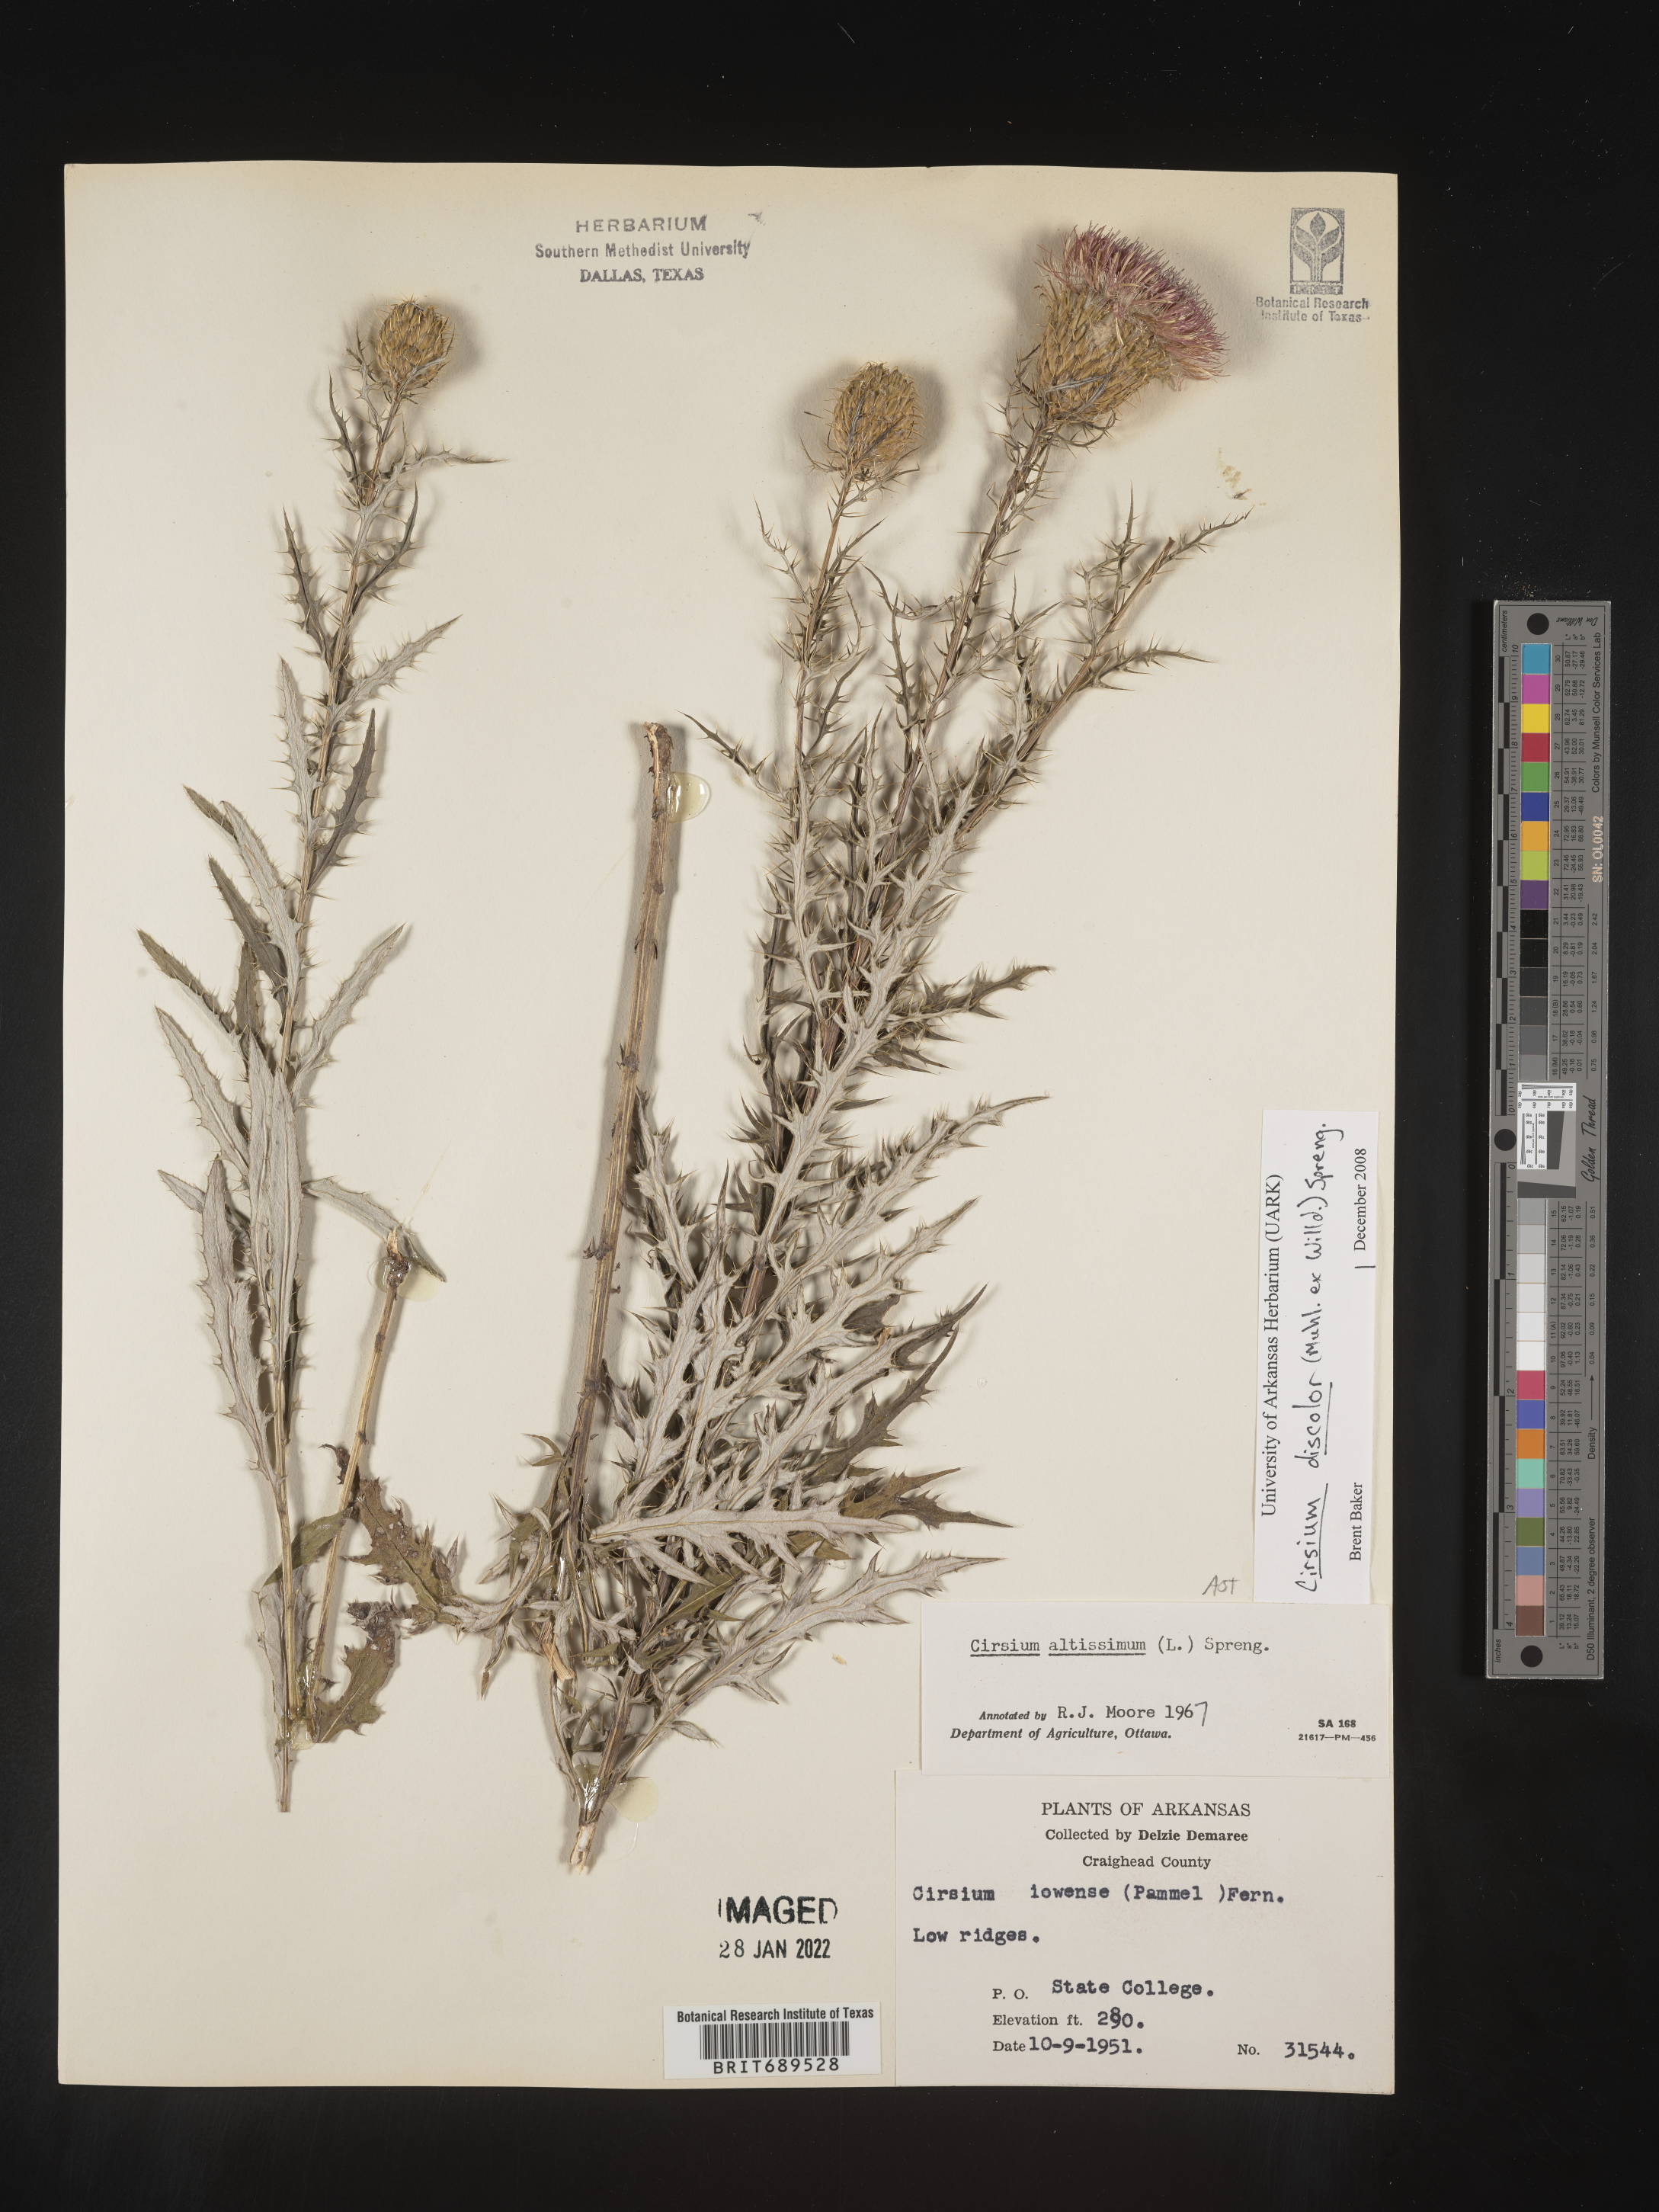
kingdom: Plantae
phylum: Tracheophyta
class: Magnoliopsida
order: Asterales
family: Asteraceae
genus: Cirsium
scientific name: Cirsium discolor
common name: Field thistle
